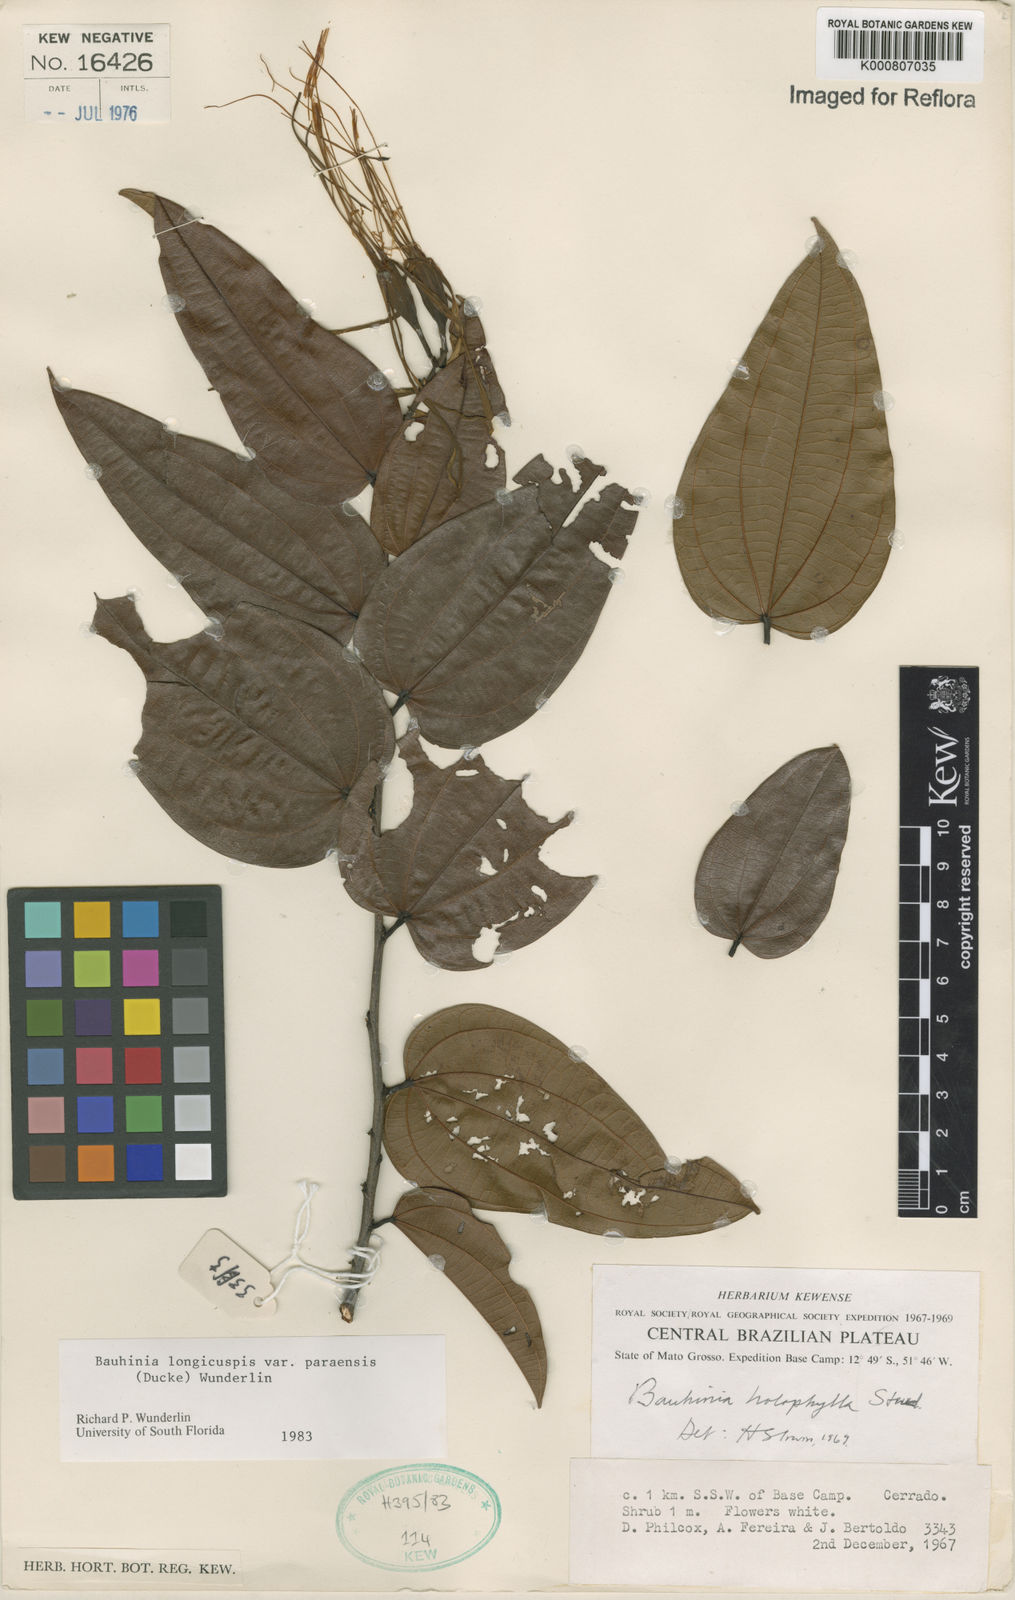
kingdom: Plantae
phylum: Tracheophyta
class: Magnoliopsida
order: Fabales
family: Fabaceae
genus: Bauhinia
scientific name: Bauhinia longicuspis
